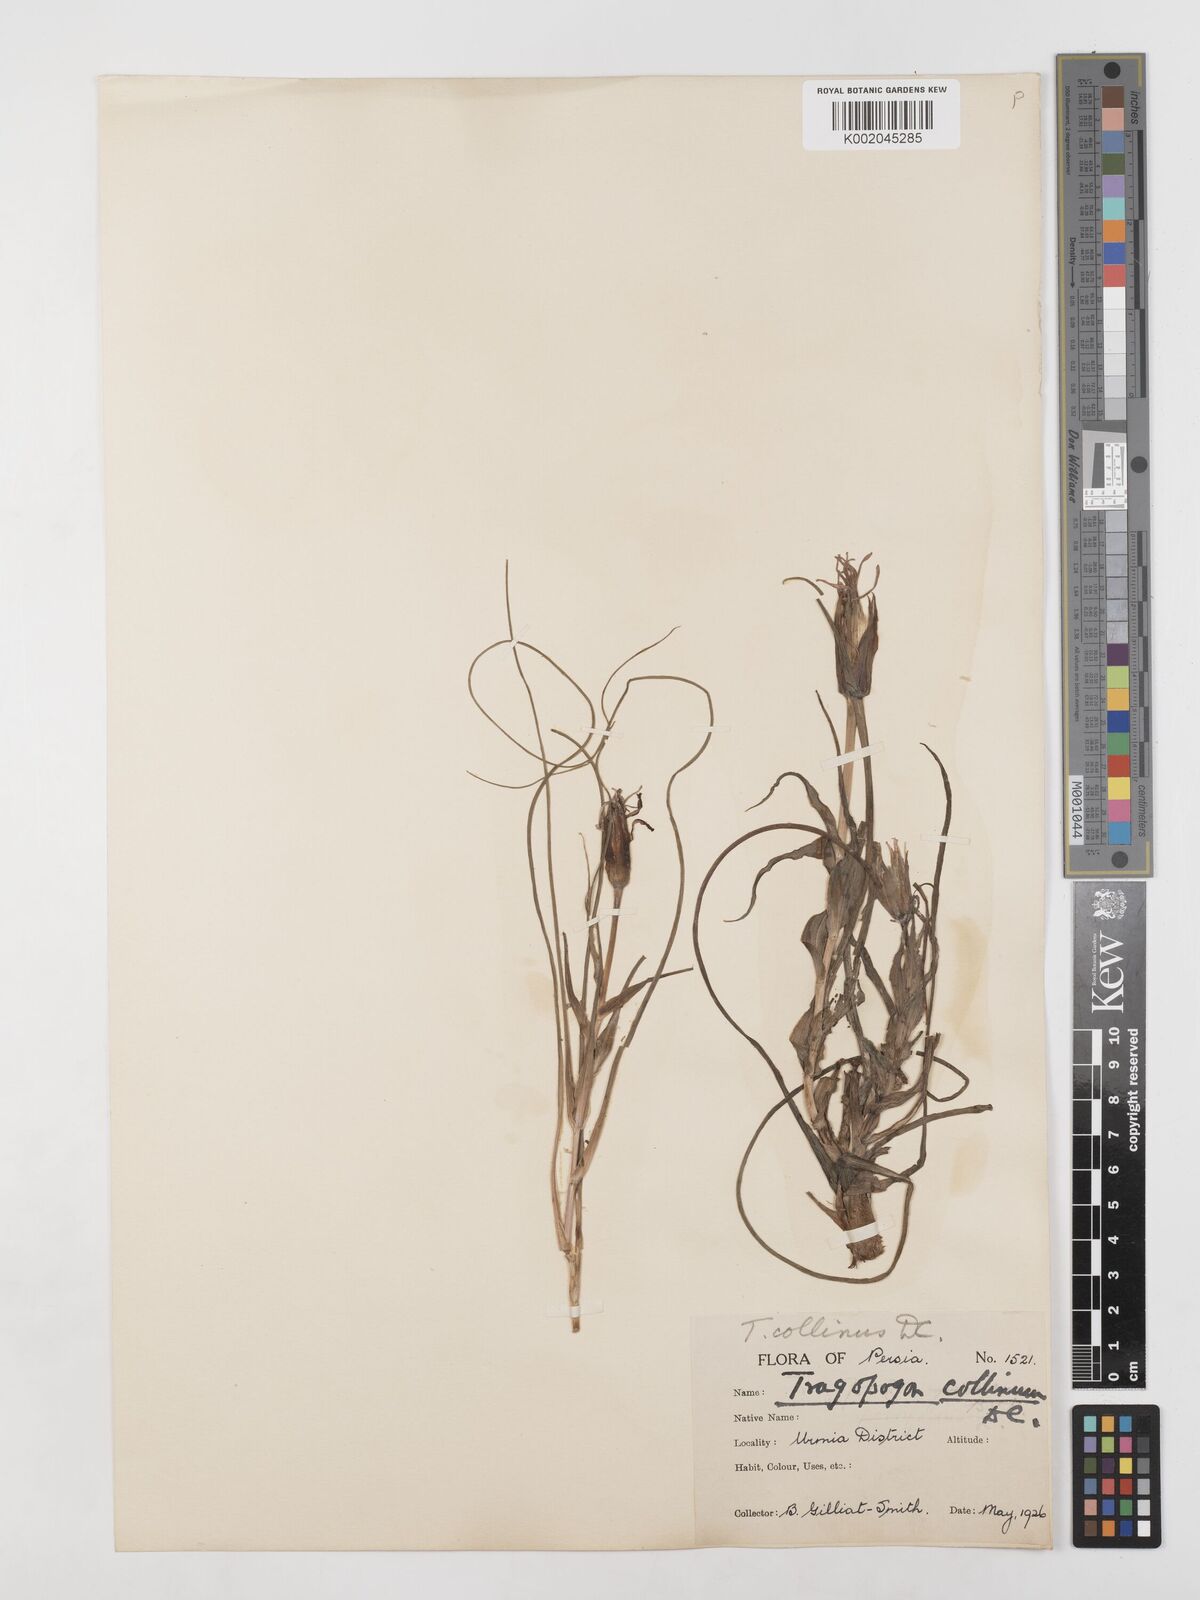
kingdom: Plantae
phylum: Tracheophyta
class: Magnoliopsida
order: Asterales
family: Asteraceae
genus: Tragopogon
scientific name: Tragopogon collinus
